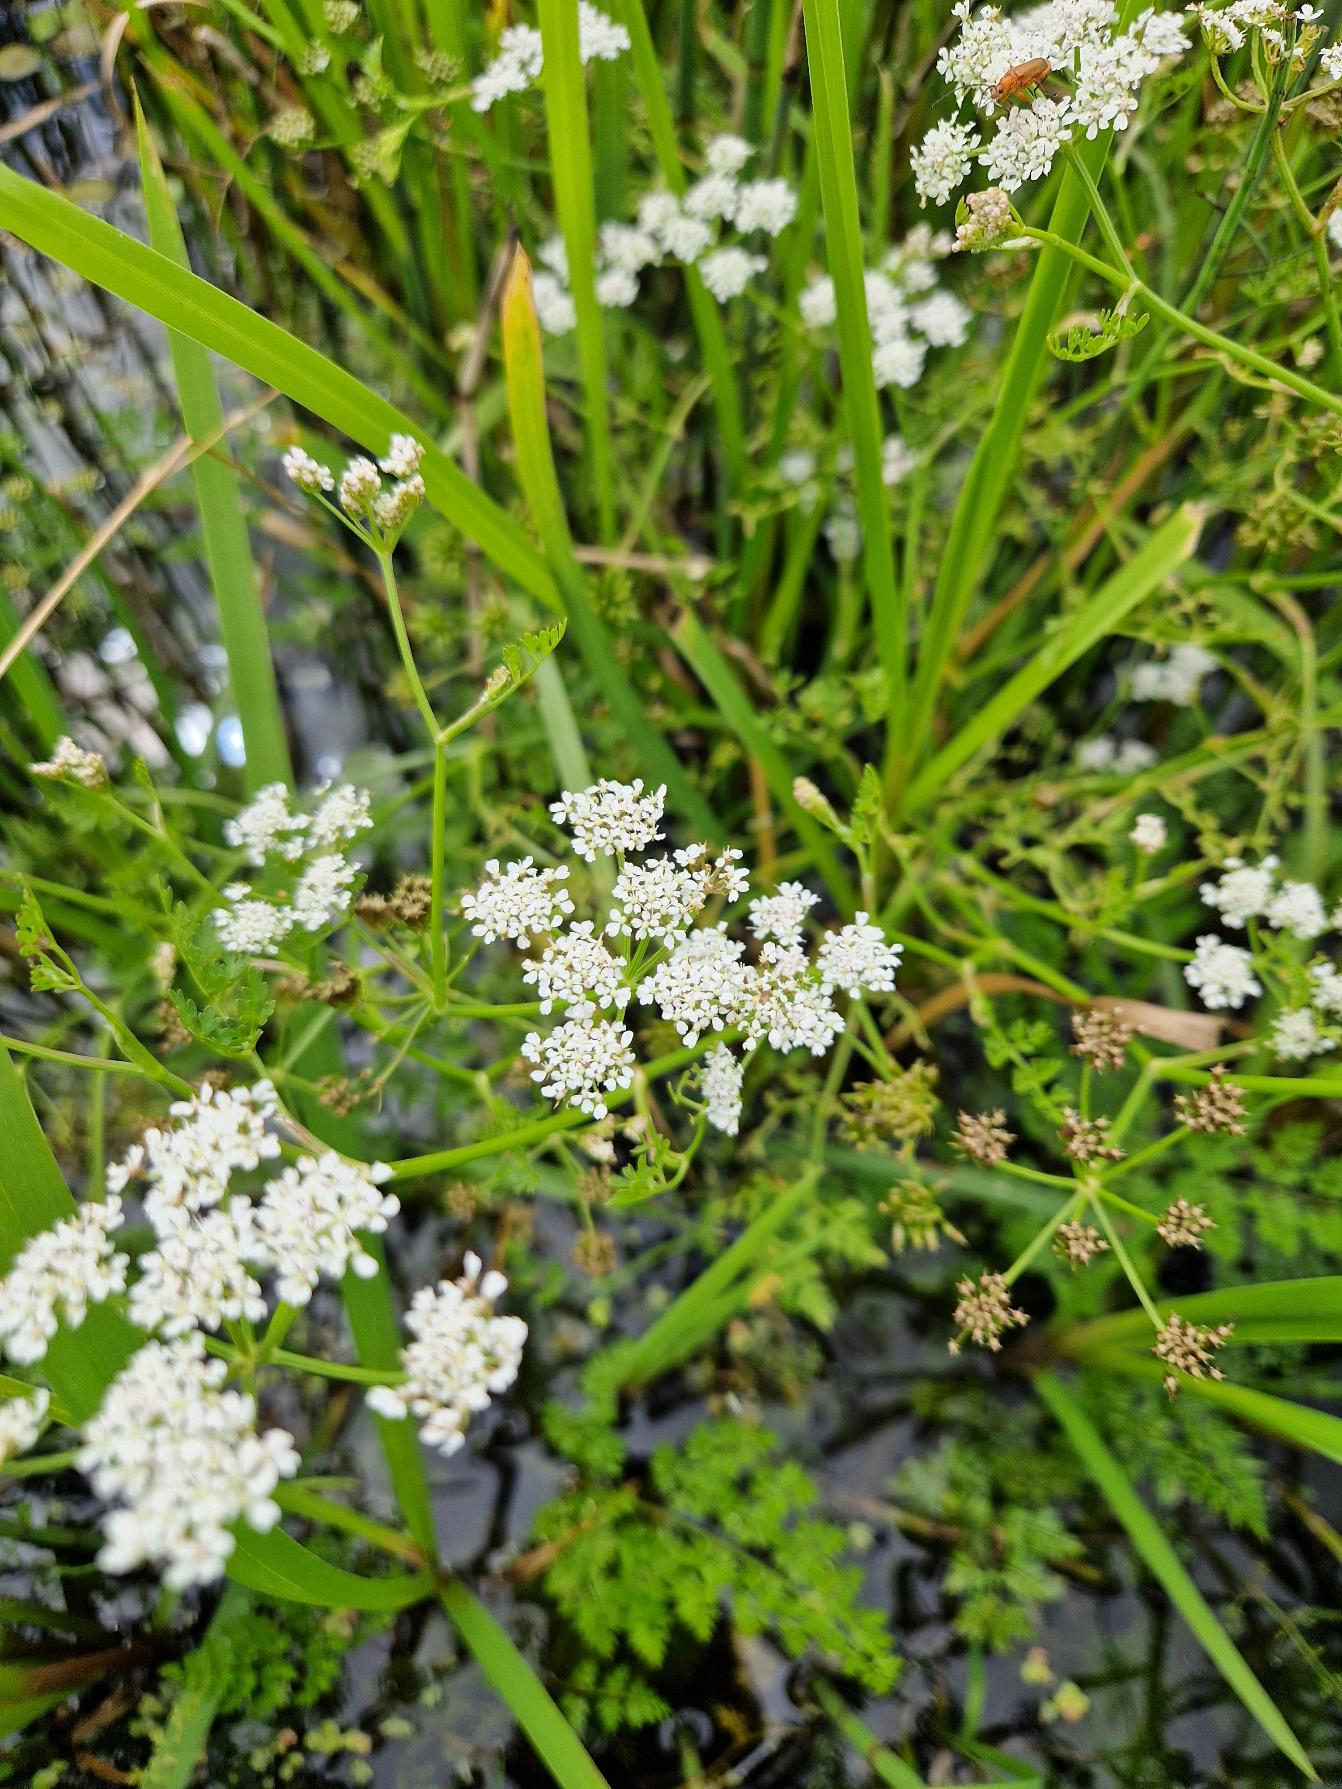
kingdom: Plantae
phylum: Tracheophyta
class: Magnoliopsida
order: Apiales
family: Apiaceae
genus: Oenanthe
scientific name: Oenanthe aquatica
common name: Billebo-klaseskærm
